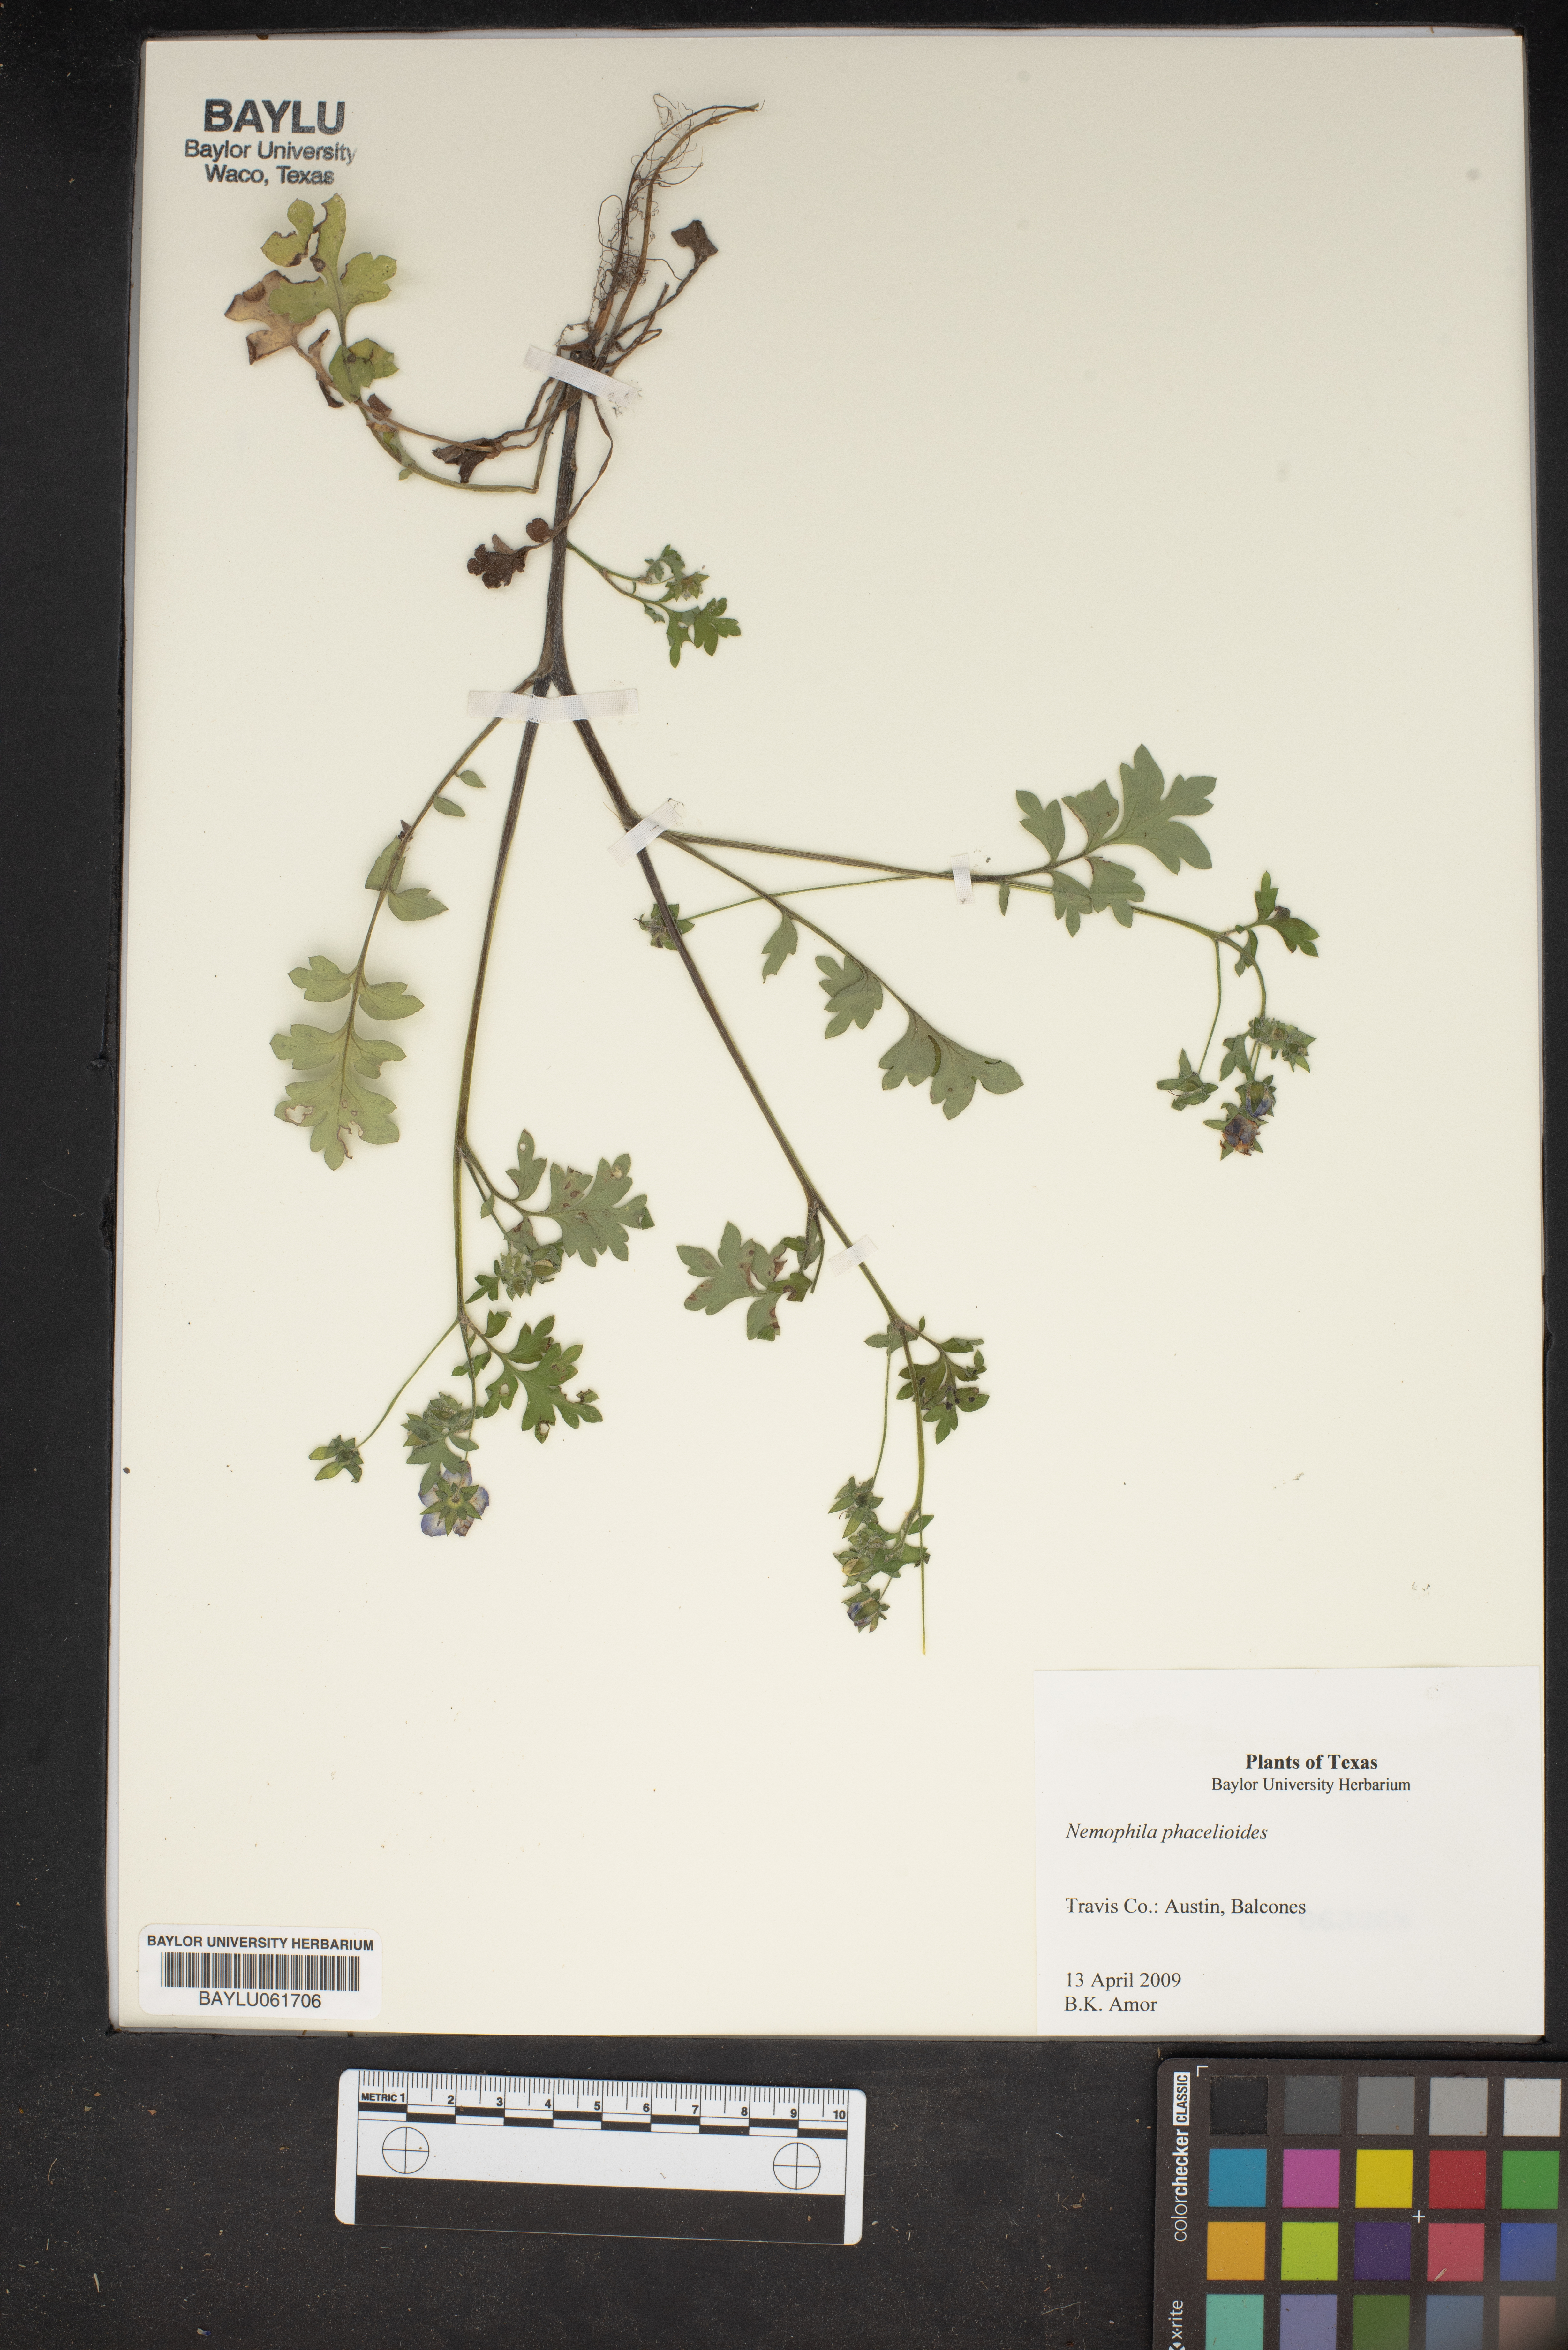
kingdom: Plantae
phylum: Tracheophyta
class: Magnoliopsida
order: Boraginales
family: Hydrophyllaceae
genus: Nemophila
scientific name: Nemophila phacelioides
